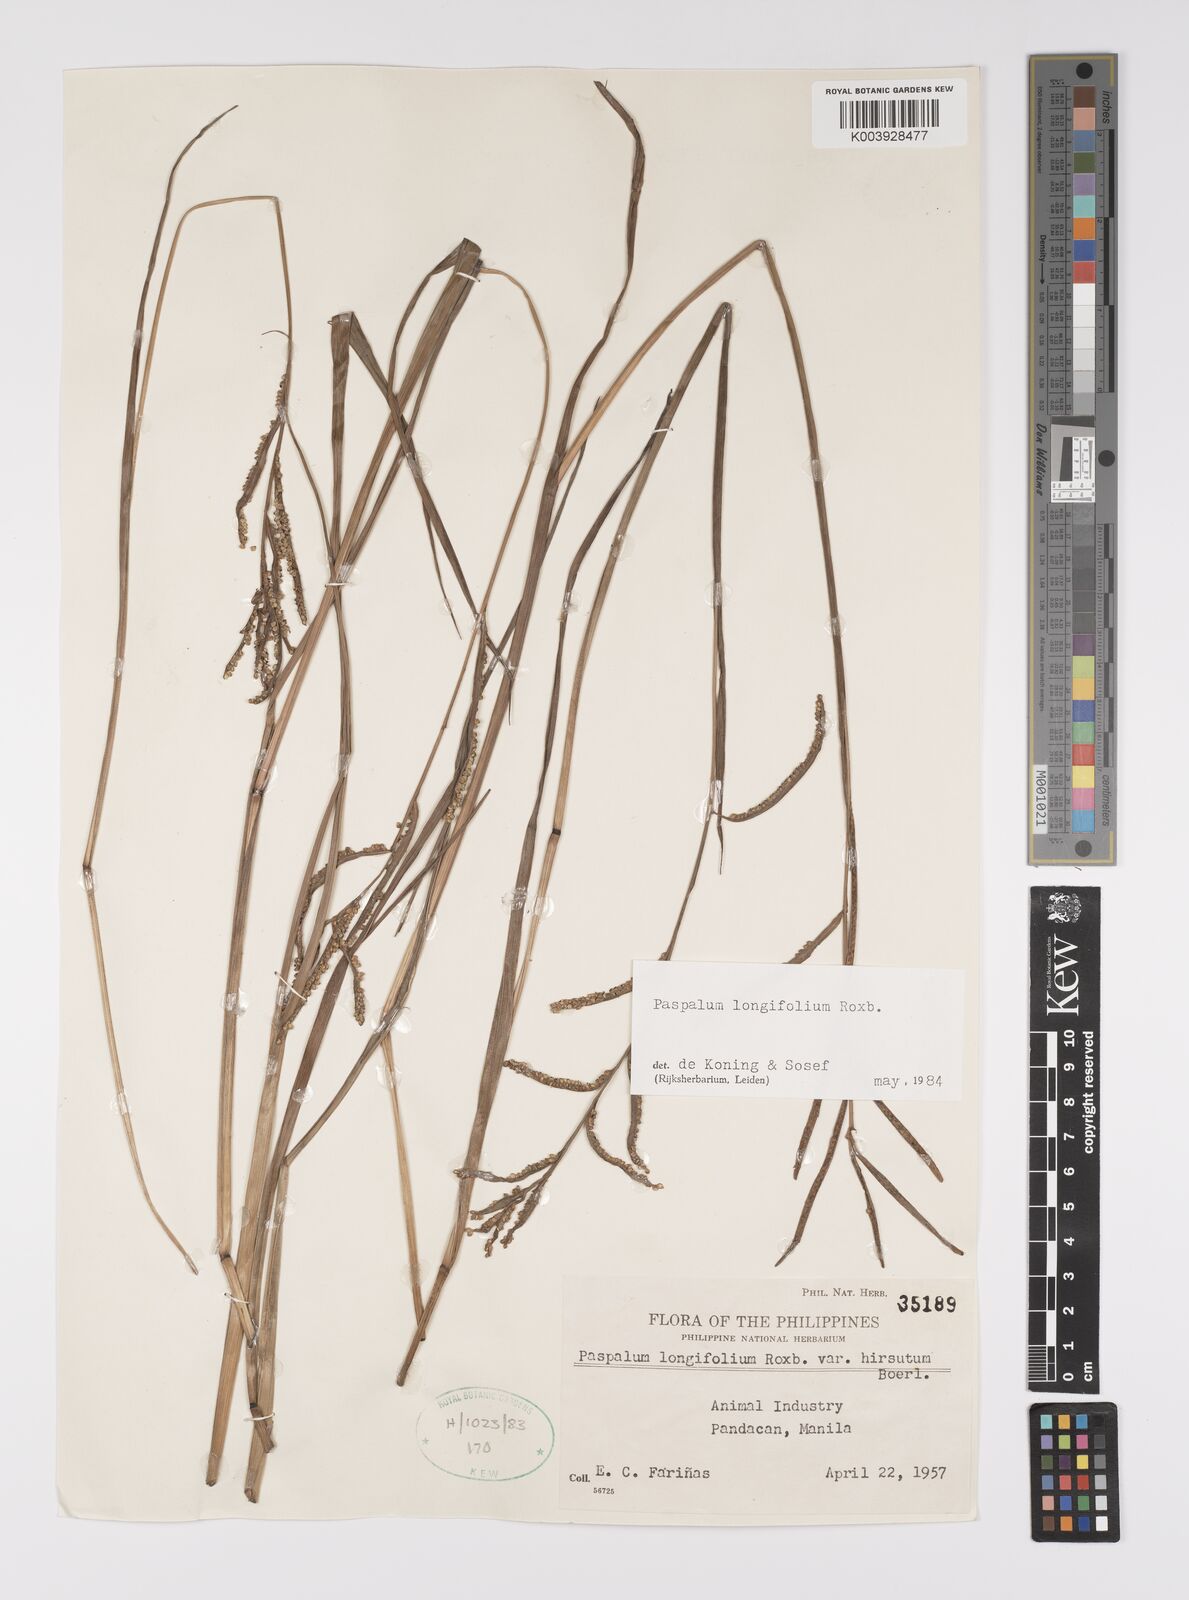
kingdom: Plantae
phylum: Tracheophyta
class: Liliopsida
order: Poales
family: Poaceae
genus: Paspalum
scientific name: Paspalum sumatrense
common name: Long-leaved paspalum
